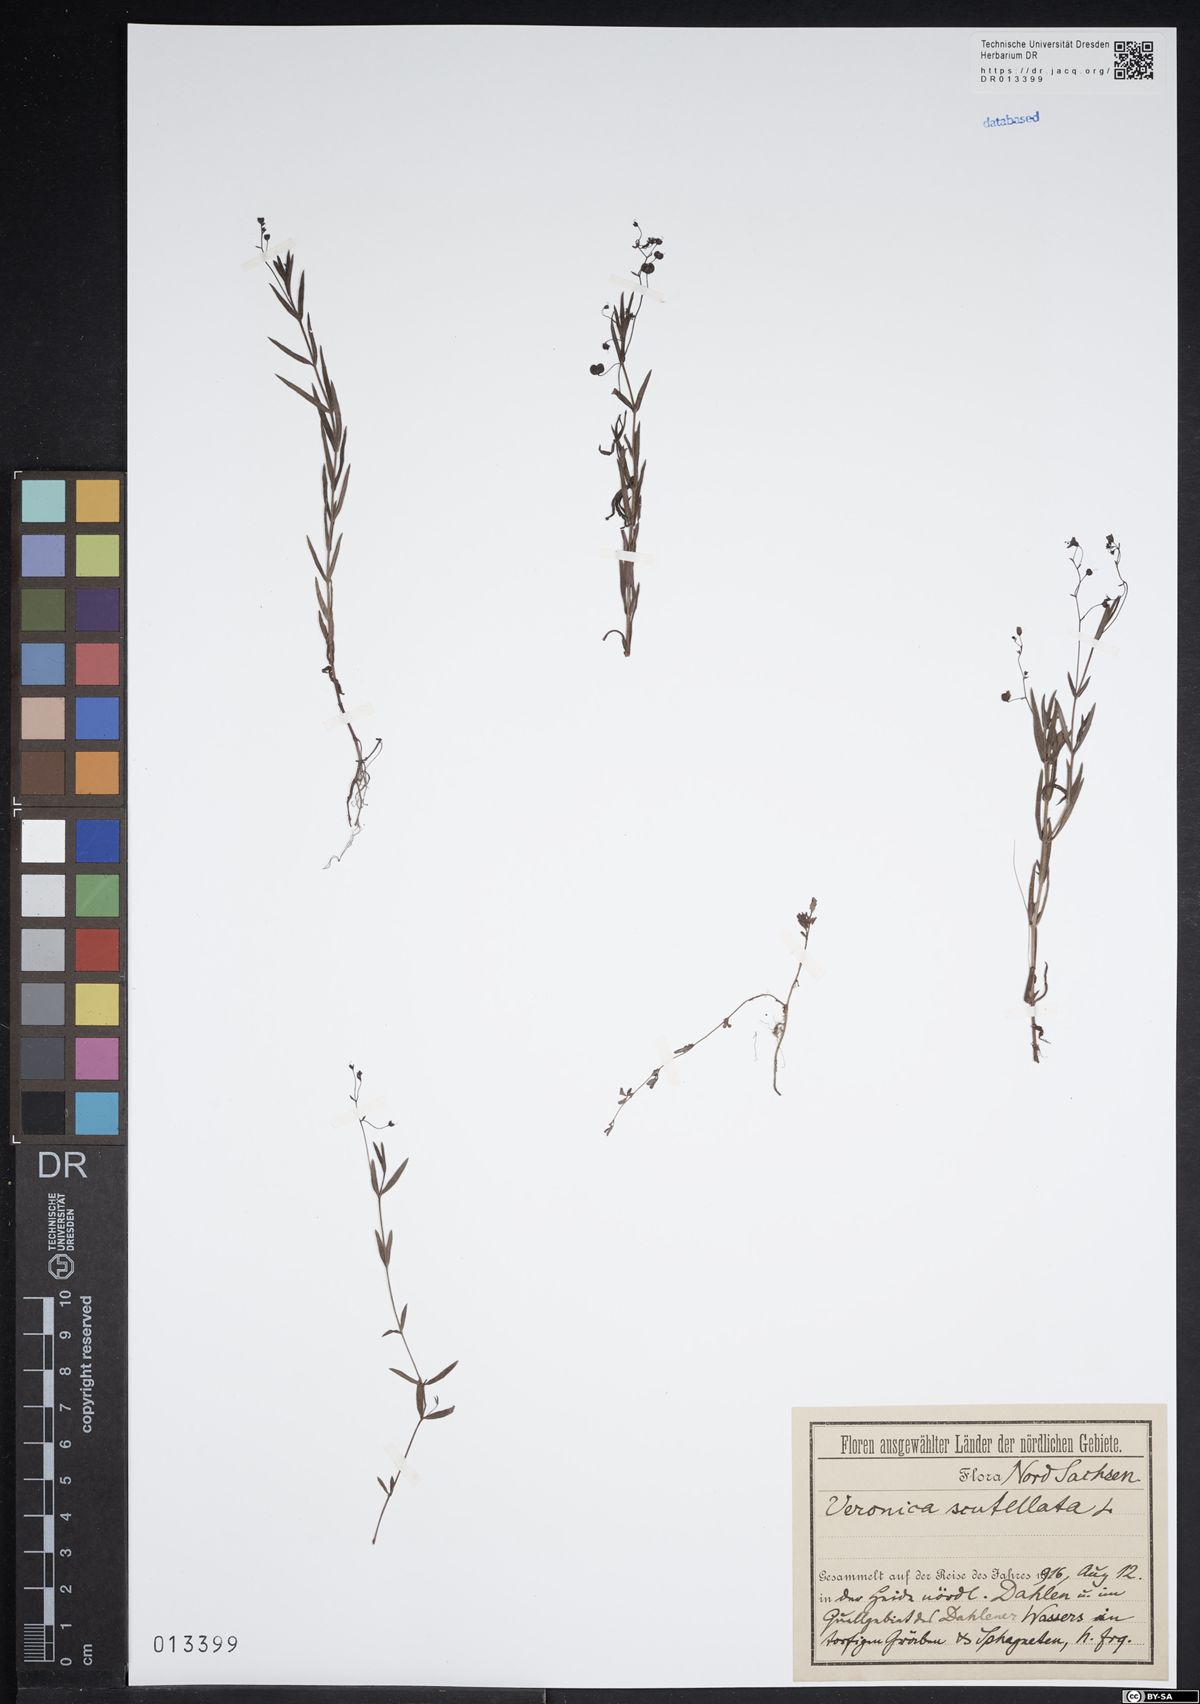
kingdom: Plantae
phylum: Tracheophyta
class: Magnoliopsida
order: Lamiales
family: Plantaginaceae
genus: Veronica
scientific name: Veronica scutellata
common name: Marsh speedwell
